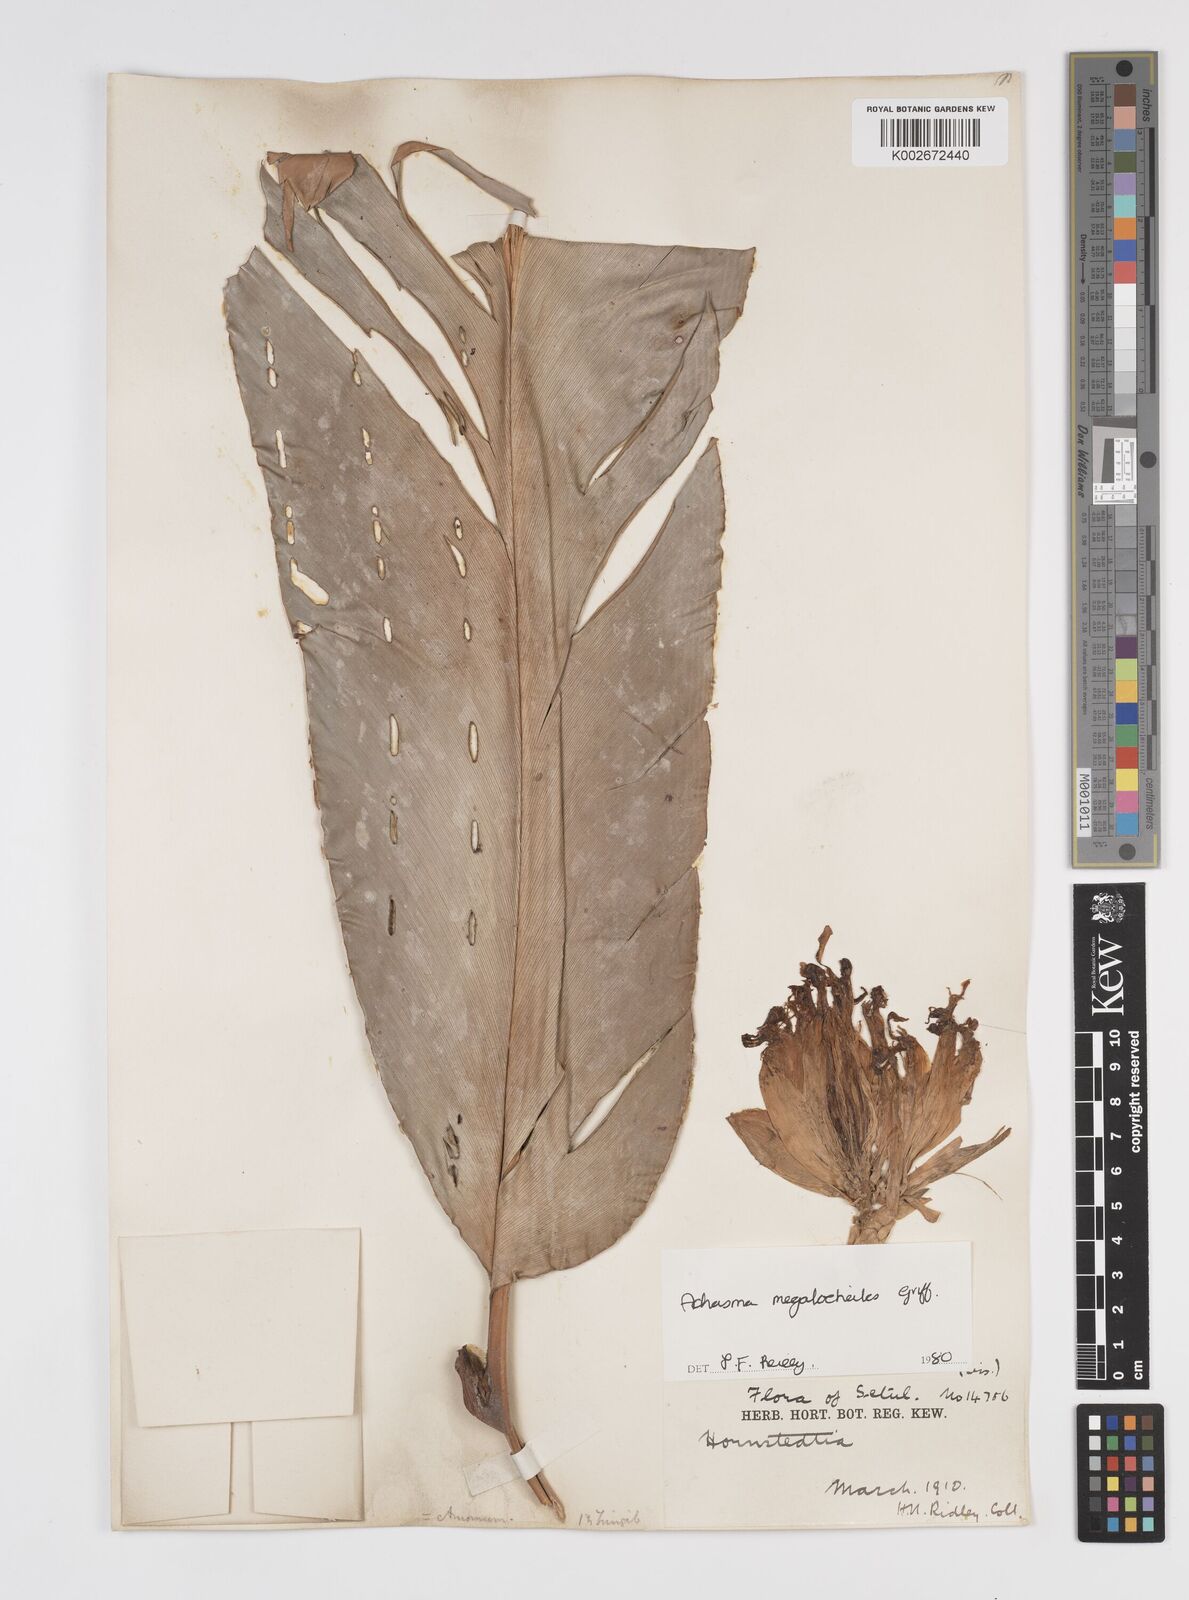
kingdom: Plantae
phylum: Tracheophyta
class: Liliopsida
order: Zingiberales
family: Zingiberaceae
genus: Etlingera
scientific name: Etlingera littoralis
